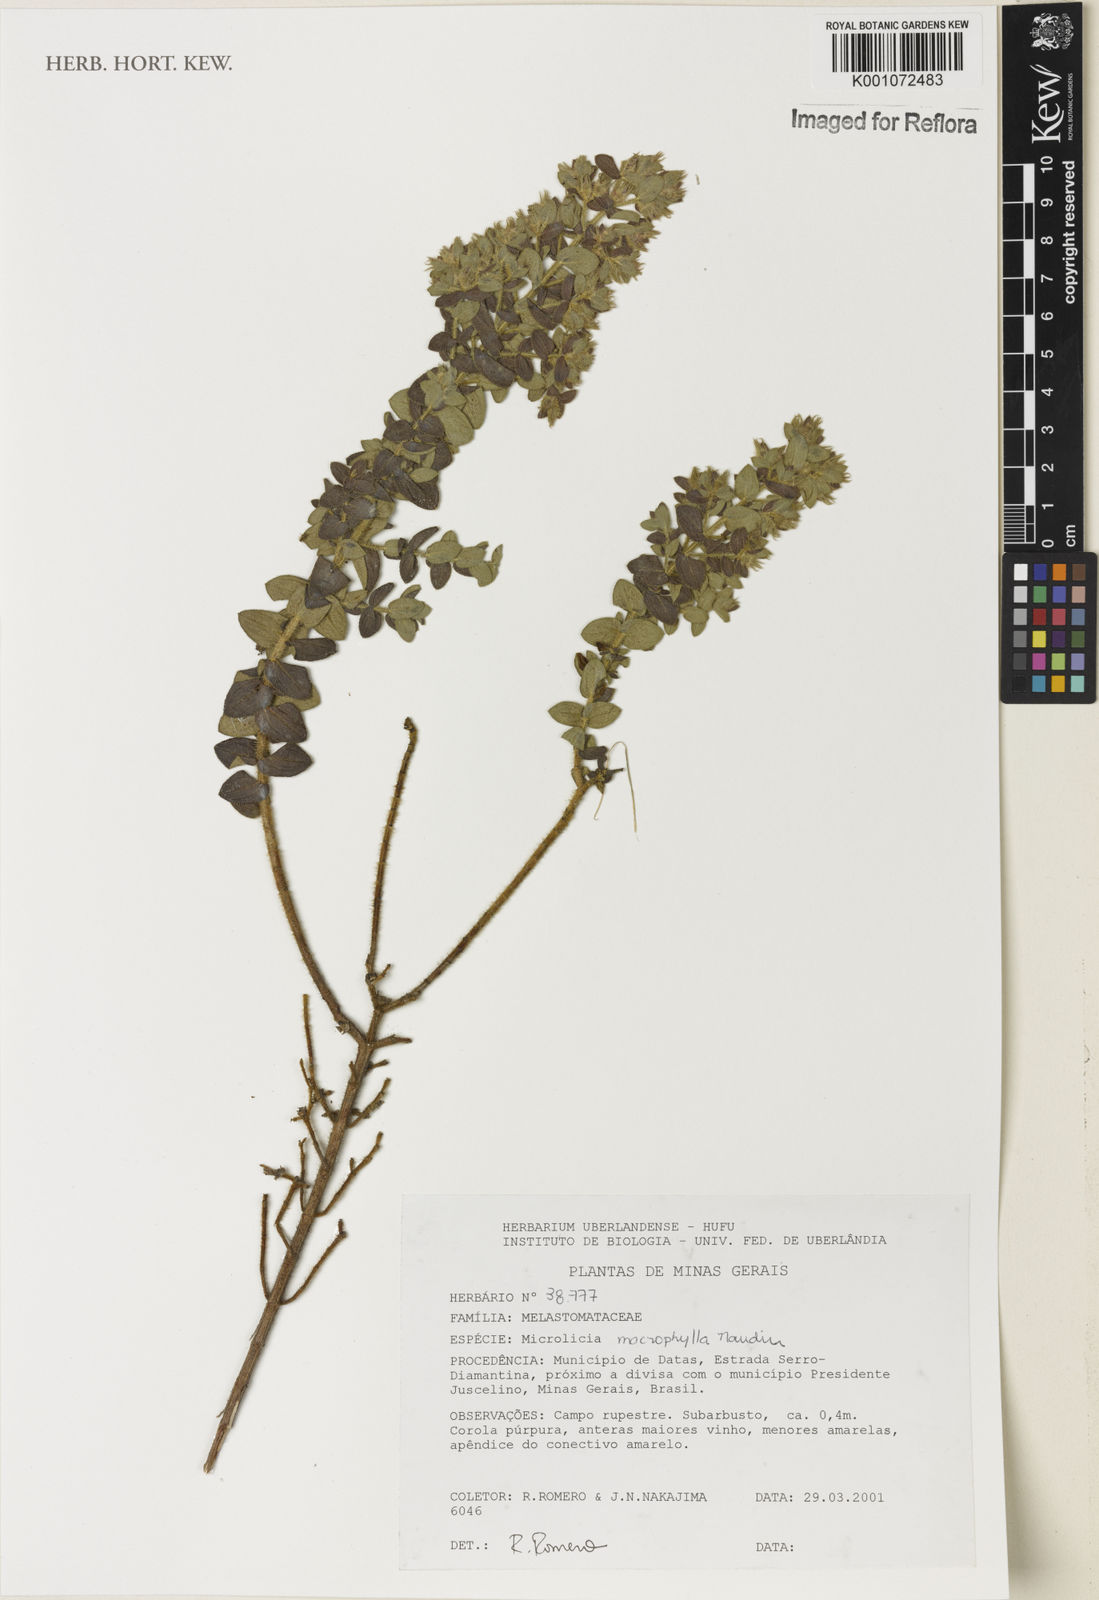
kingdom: Plantae
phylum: Tracheophyta
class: Magnoliopsida
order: Myrtales
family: Melastomataceae
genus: Microlicia
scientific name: Microlicia macrophylla
